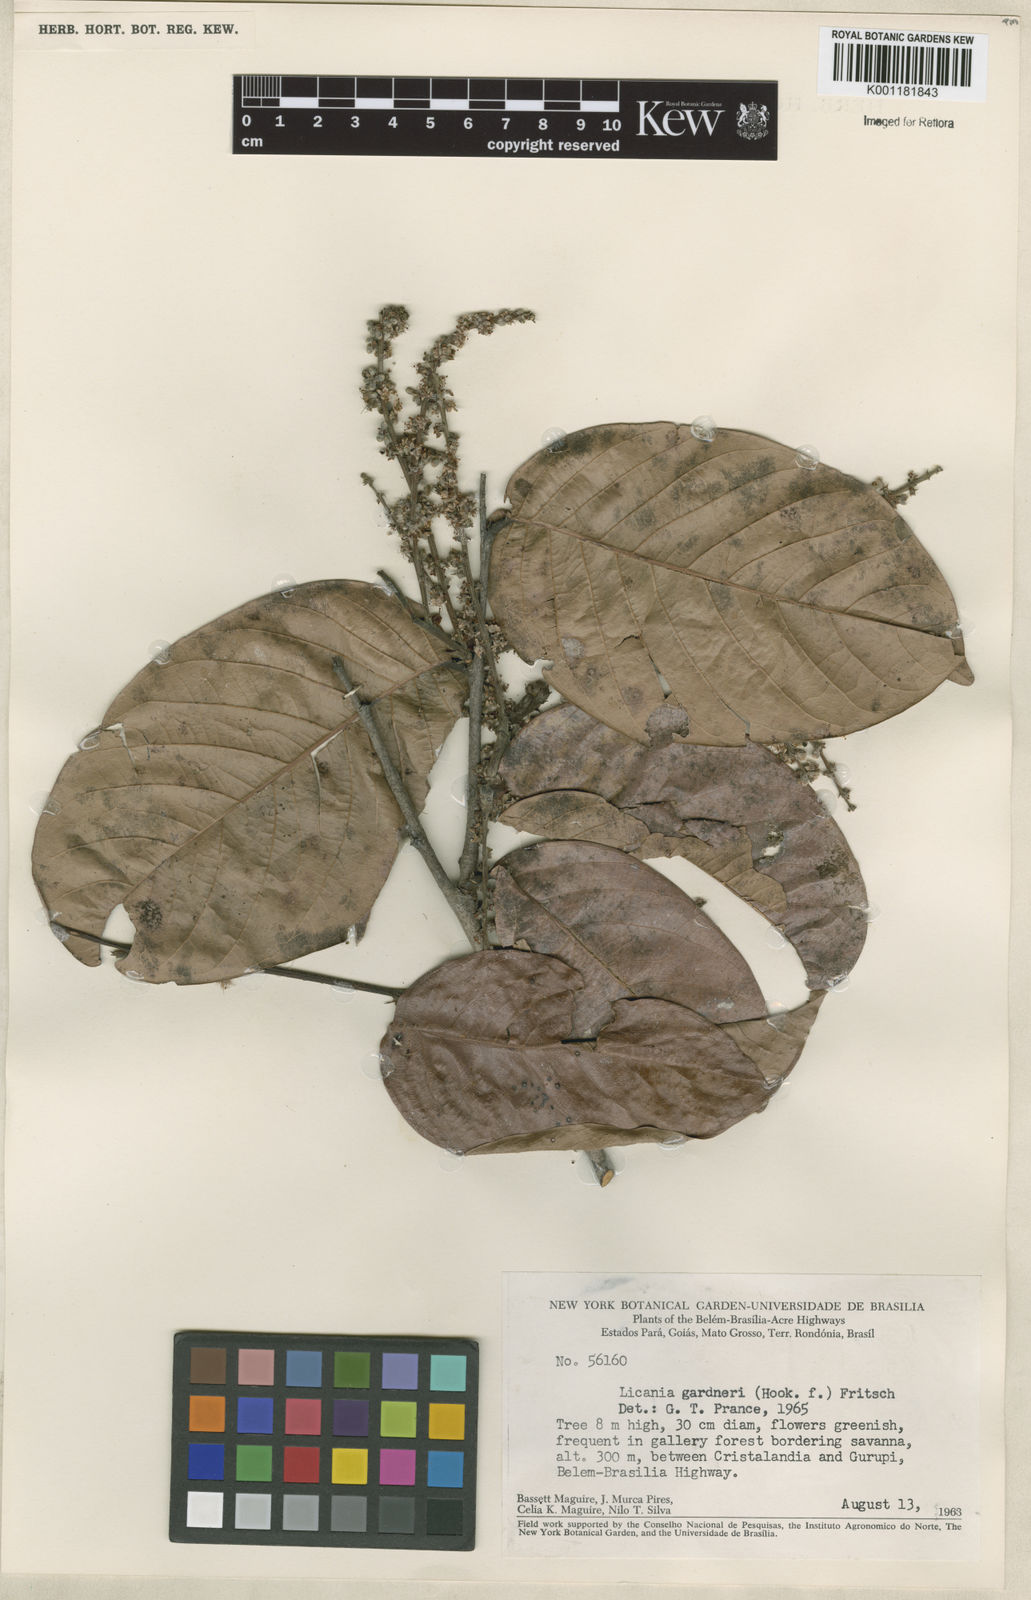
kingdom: Plantae
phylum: Tracheophyta
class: Magnoliopsida
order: Malpighiales
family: Chrysobalanaceae
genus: Leptobalanus
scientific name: Leptobalanus gardneri
